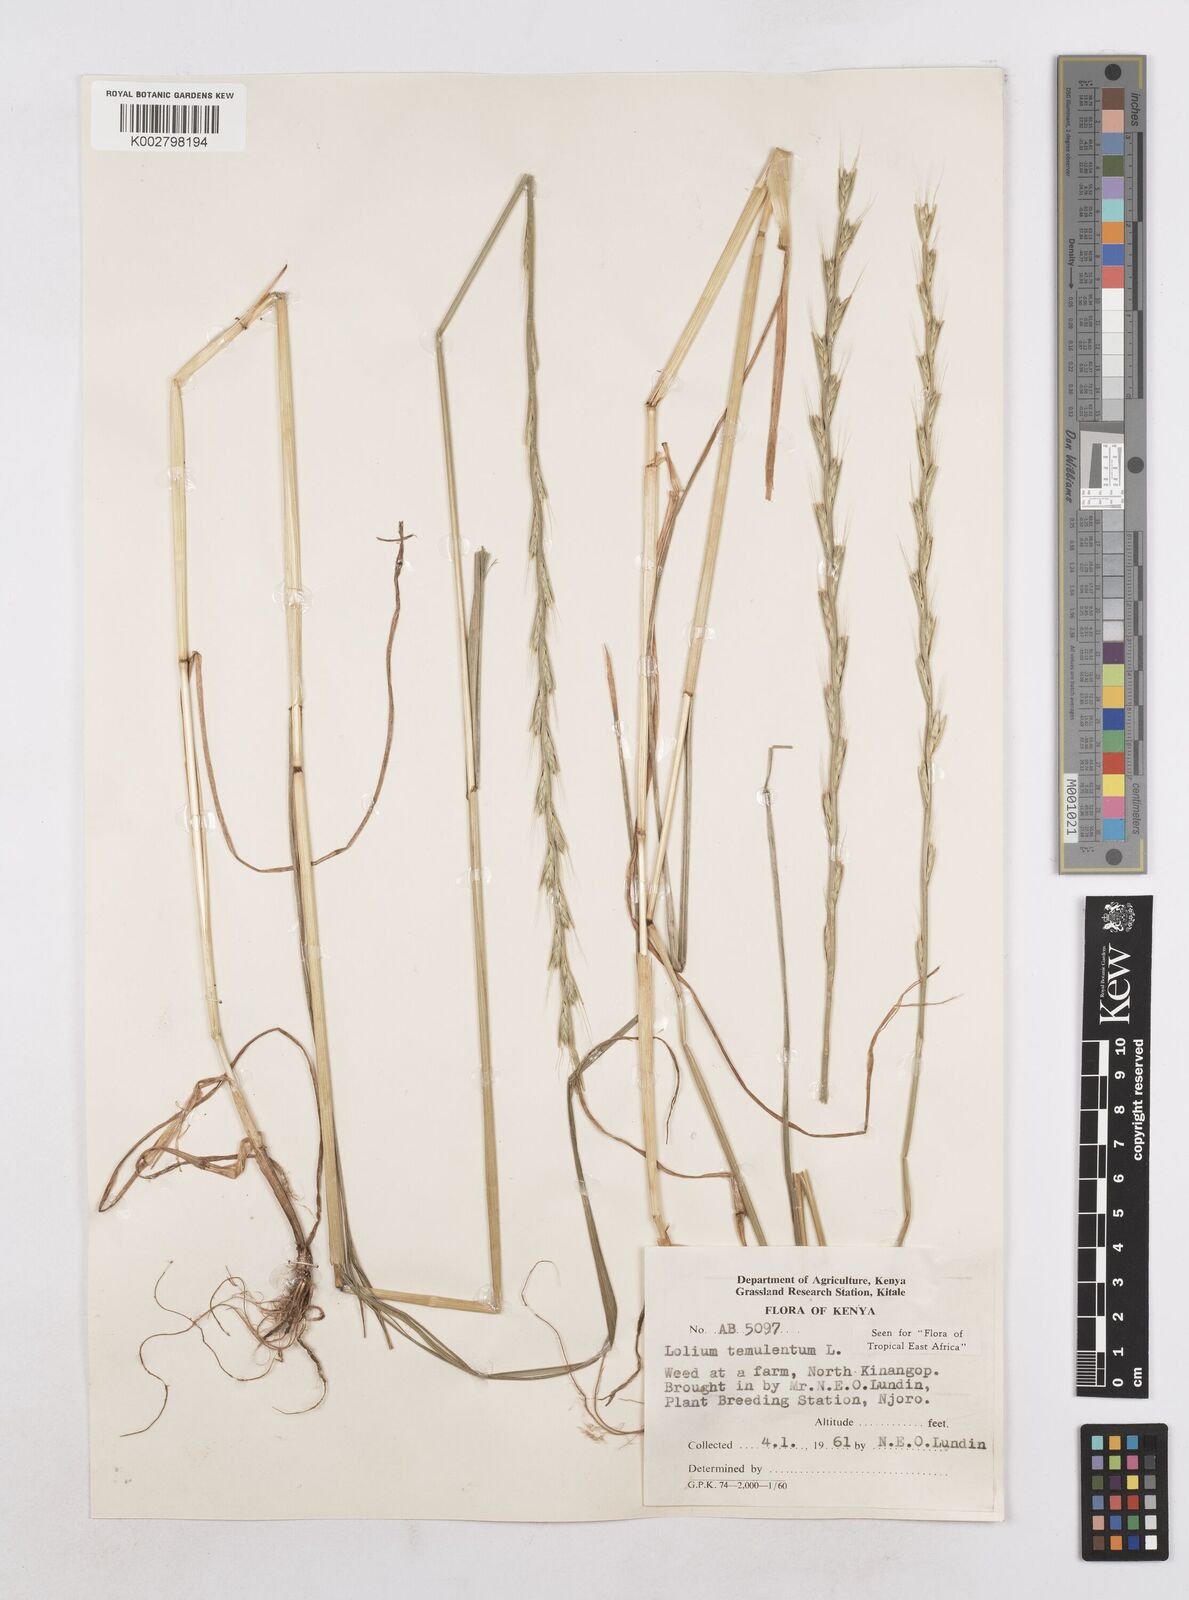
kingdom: Plantae
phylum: Tracheophyta
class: Liliopsida
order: Poales
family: Poaceae
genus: Lolium
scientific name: Lolium temulentum
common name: Darnel
